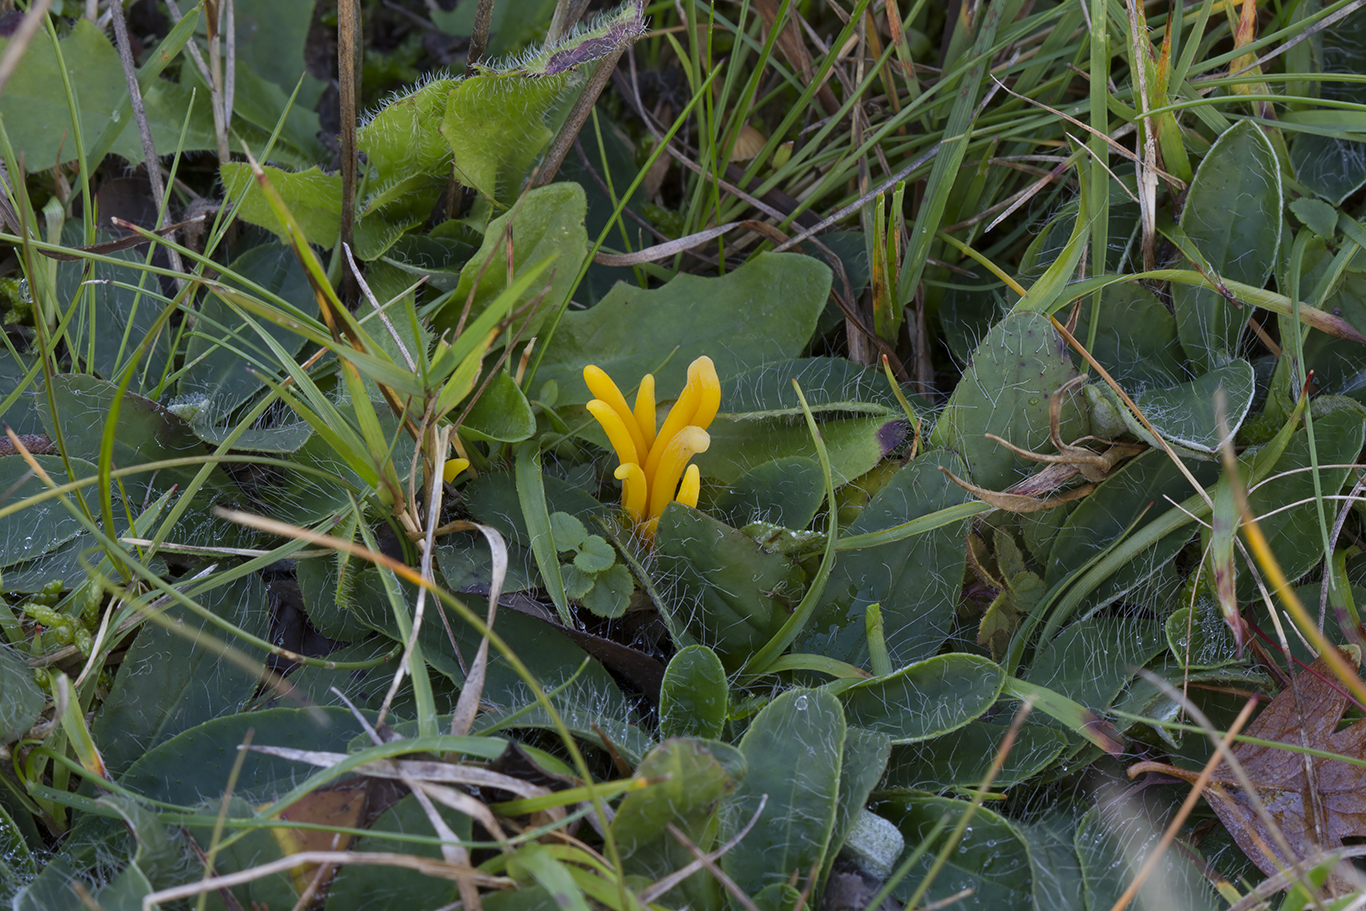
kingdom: Fungi
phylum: Basidiomycota
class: Agaricomycetes
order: Agaricales
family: Clavariaceae
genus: Clavulinopsis
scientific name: Clavulinopsis helvola
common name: orangegul køllesvamp
